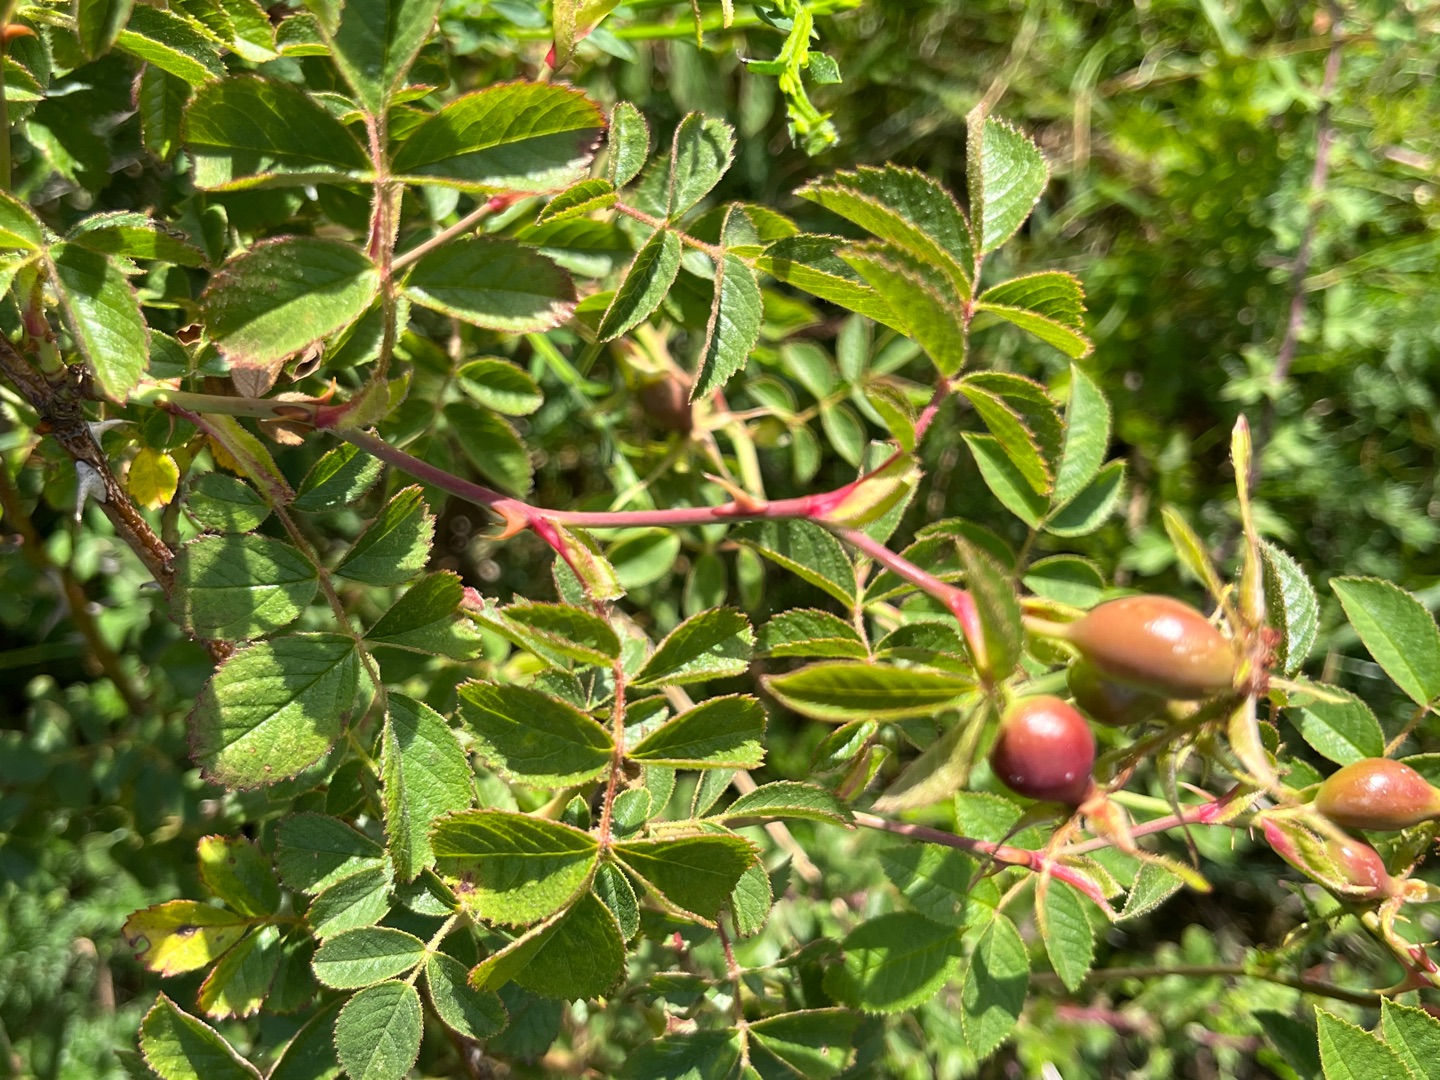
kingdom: Plantae
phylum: Tracheophyta
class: Magnoliopsida
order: Rosales
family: Rosaceae
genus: Rosa
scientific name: Rosa rubiginosa
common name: Æble-rose
